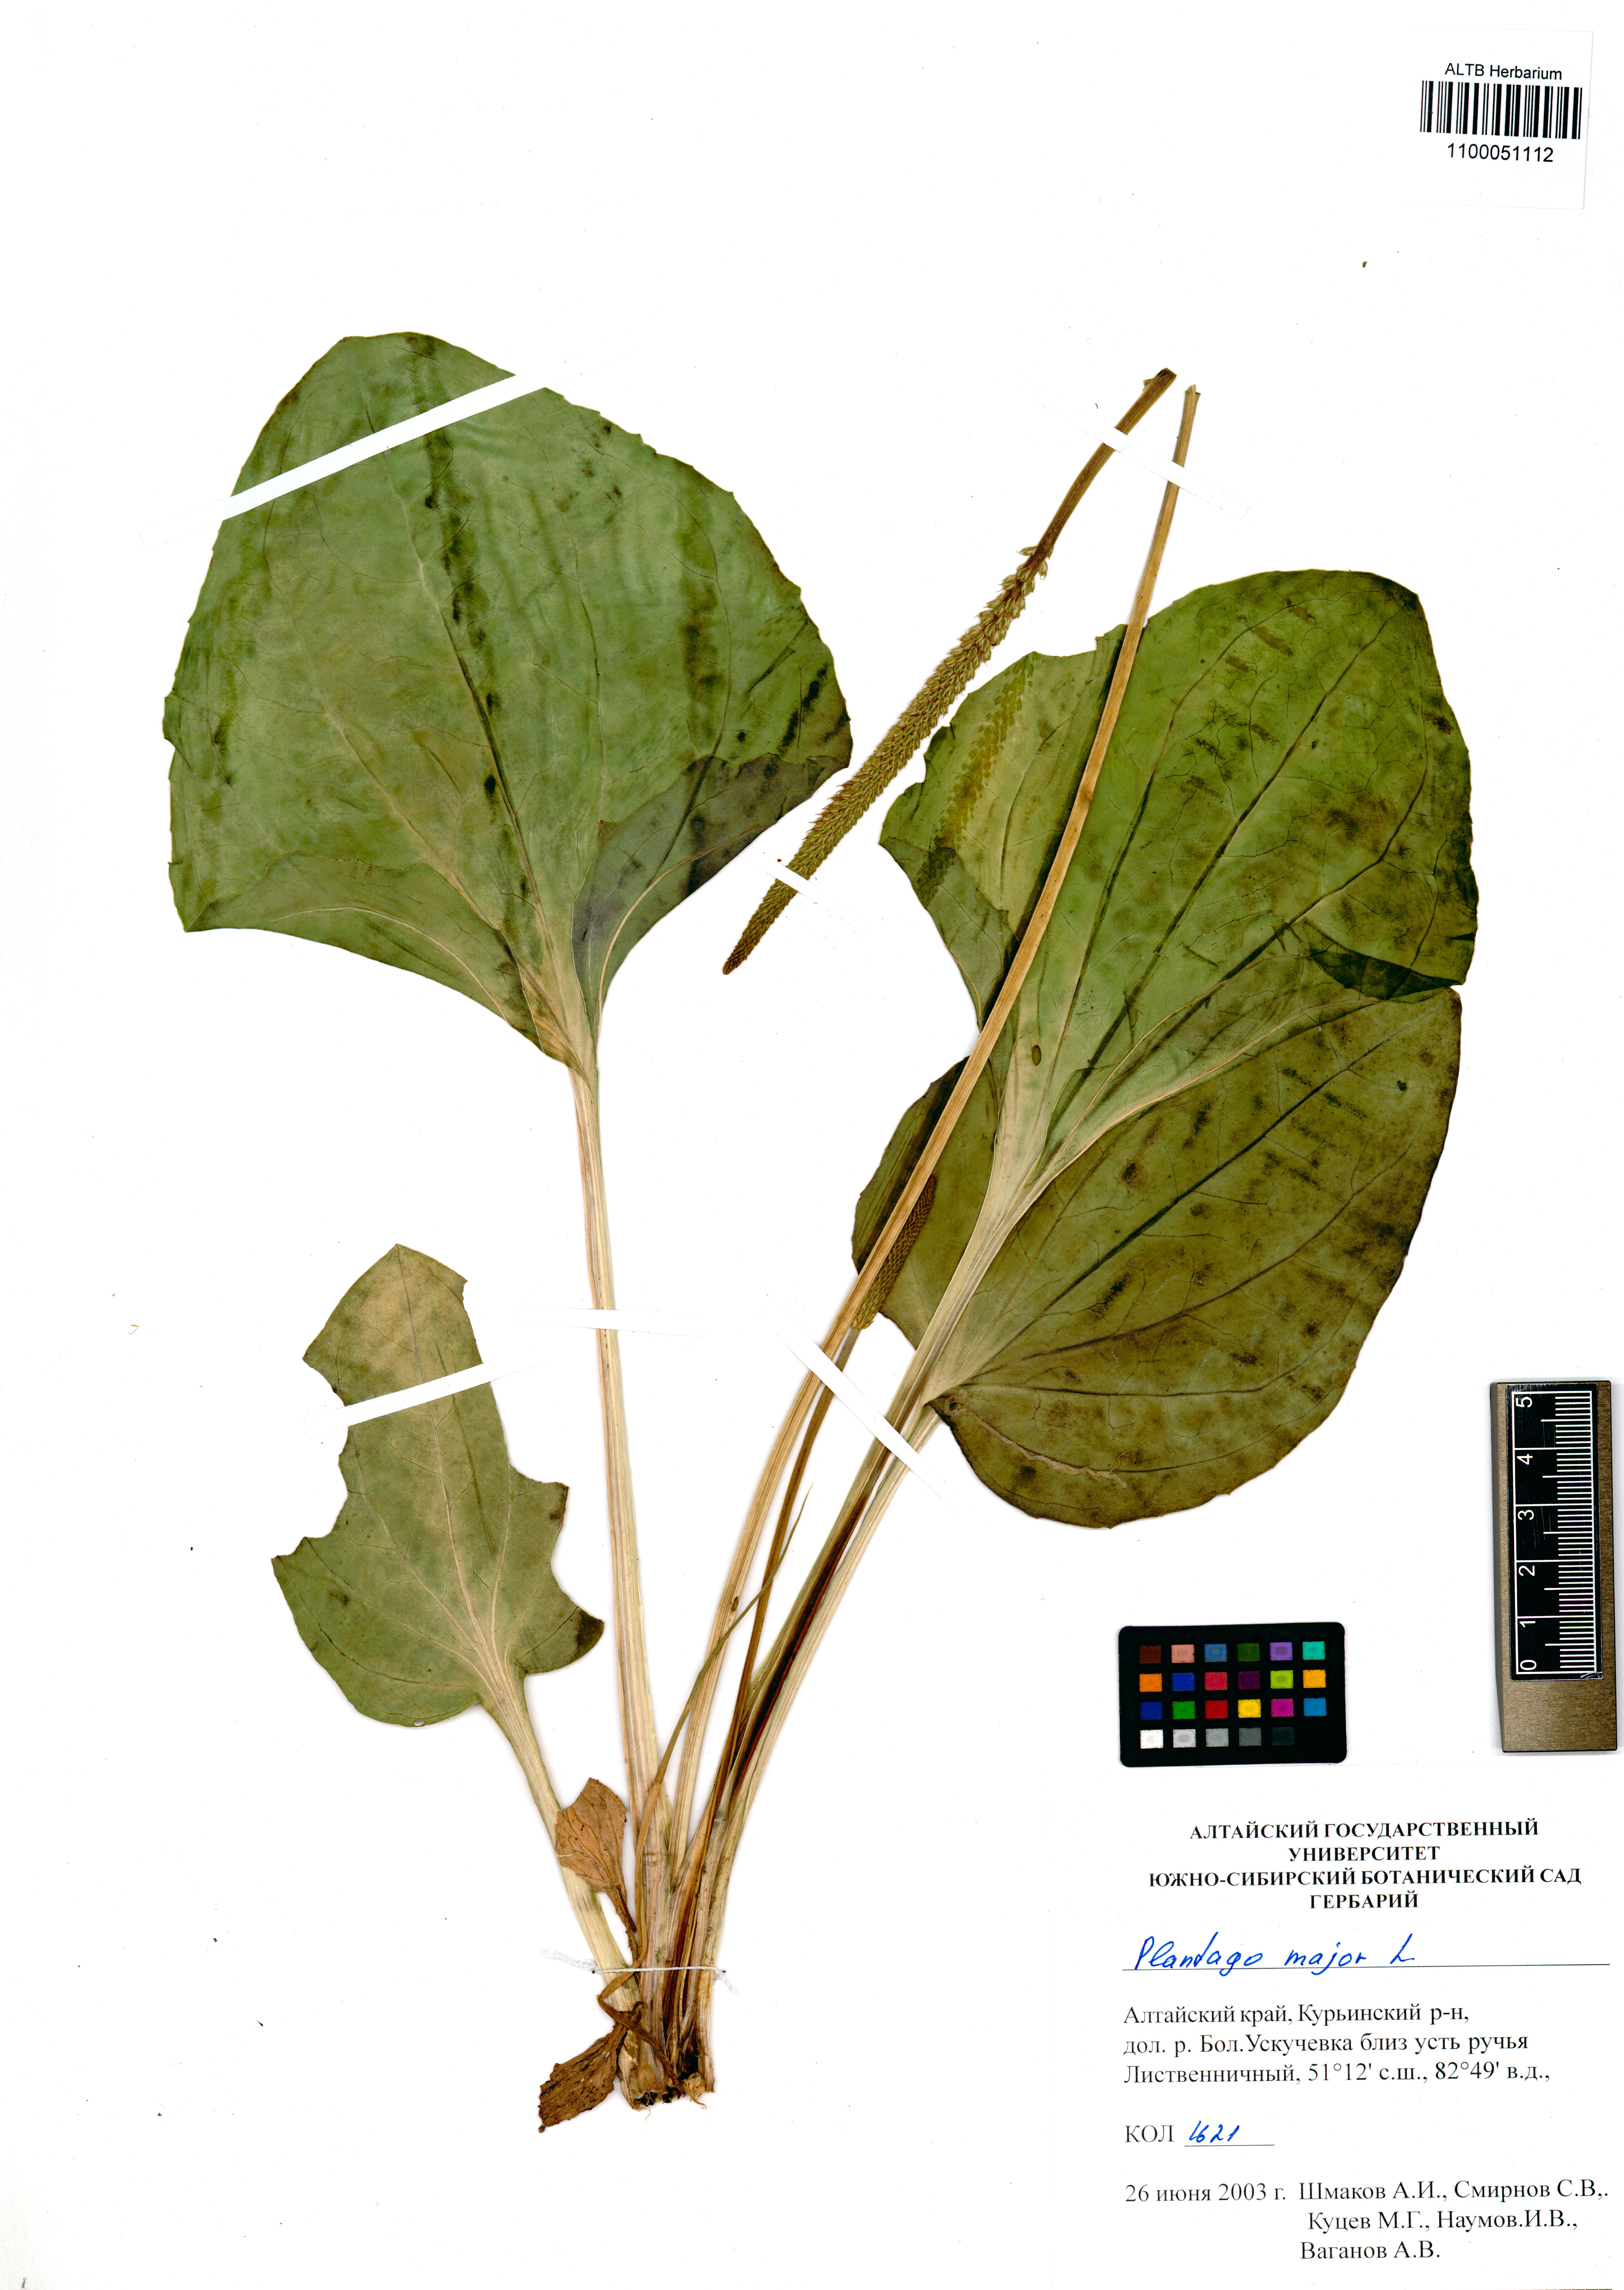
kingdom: Plantae
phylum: Tracheophyta
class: Magnoliopsida
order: Lamiales
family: Plantaginaceae
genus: Plantago
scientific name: Plantago major
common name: Common plantain
